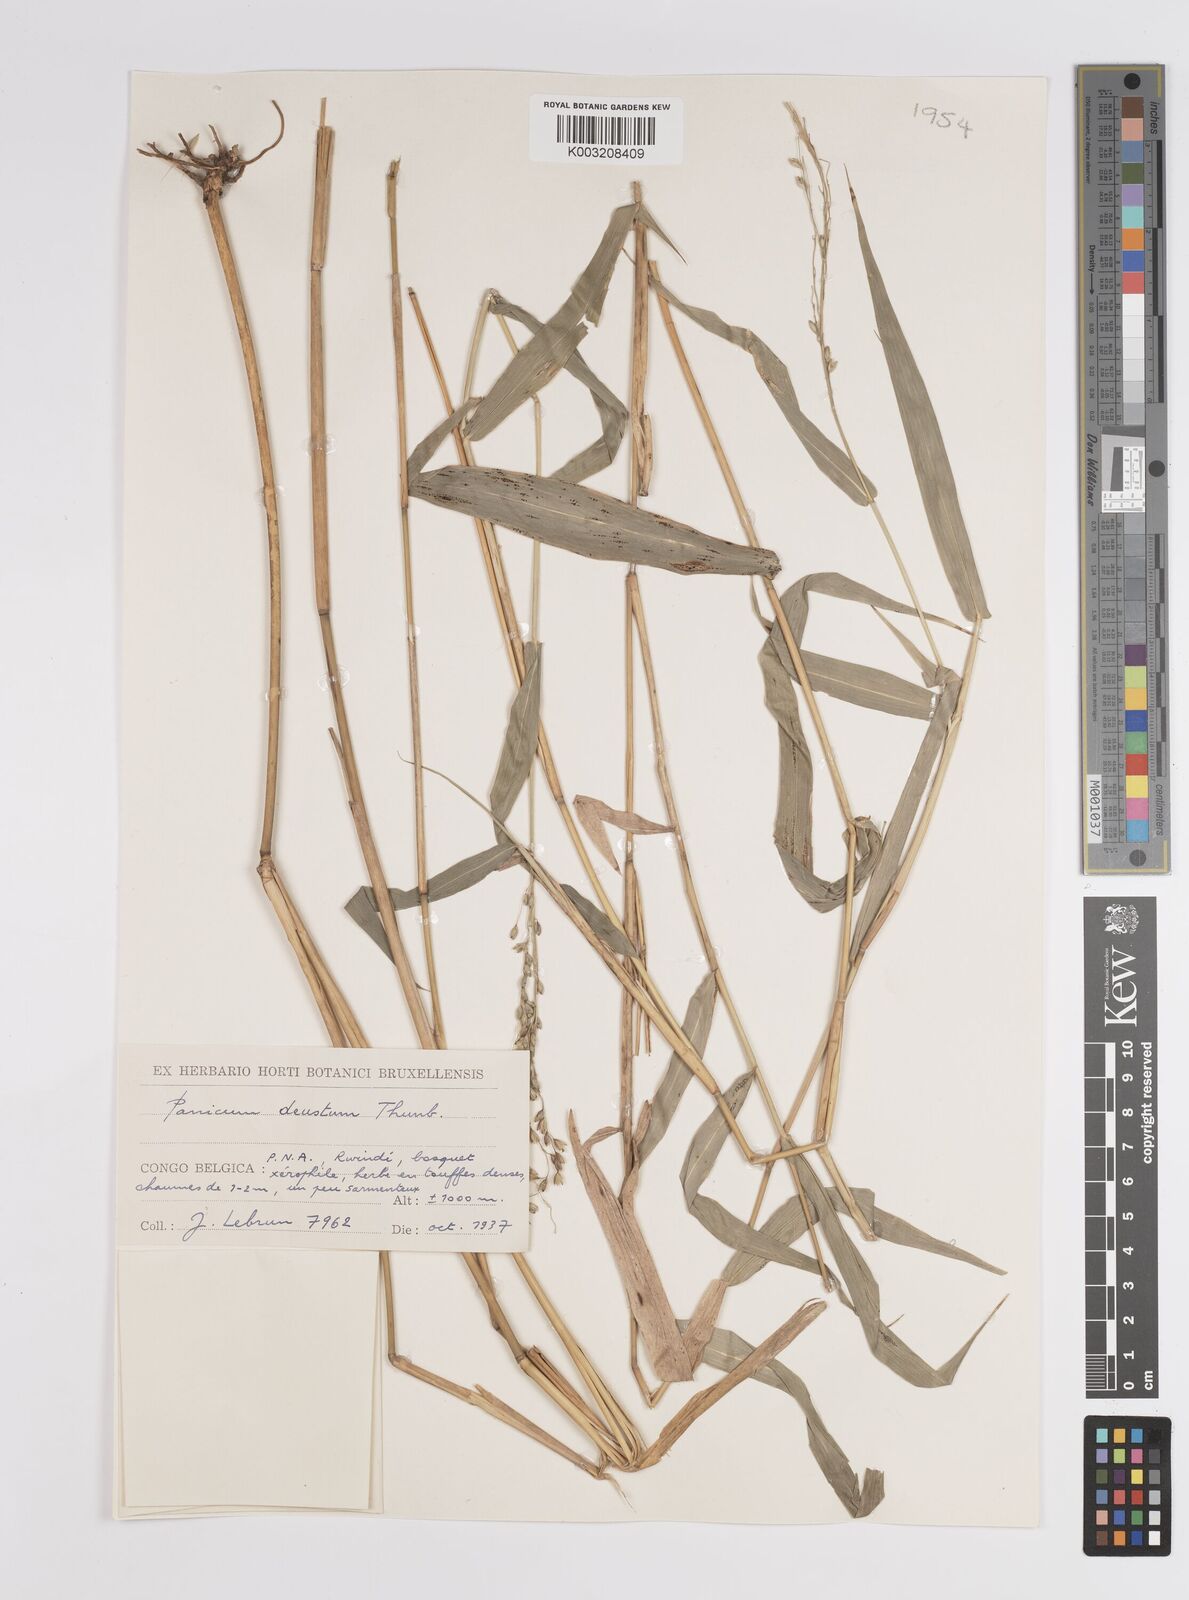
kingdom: Plantae
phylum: Tracheophyta
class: Liliopsida
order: Poales
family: Poaceae
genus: Panicum
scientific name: Panicum deustum
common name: Reed panicum
